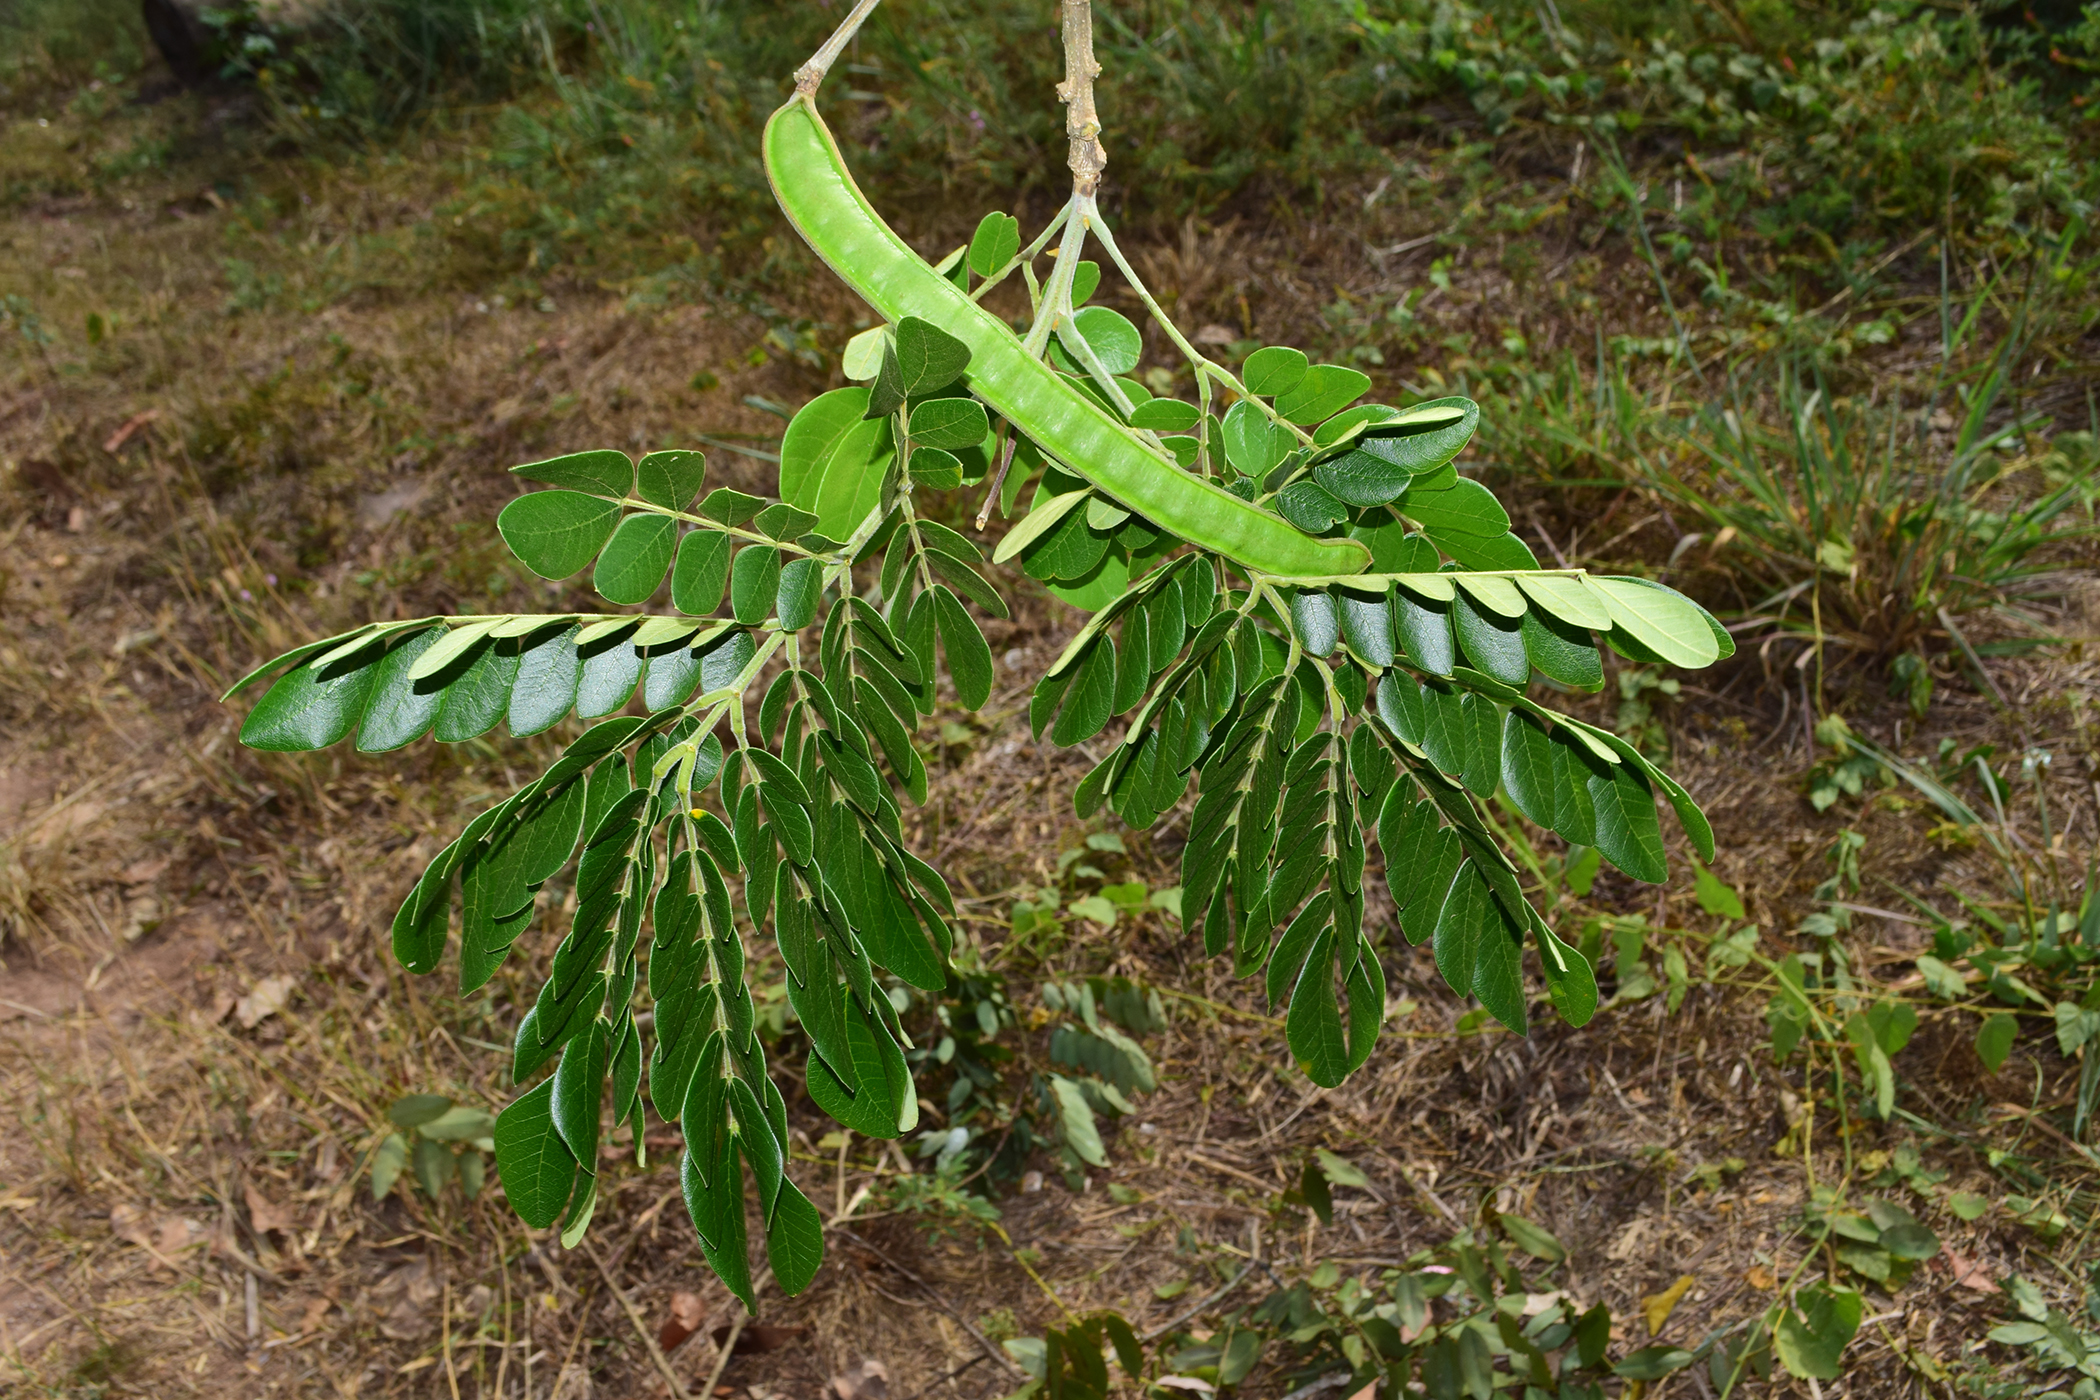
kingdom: Plantae
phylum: Tracheophyta
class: Magnoliopsida
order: Fabales
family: Fabaceae
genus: Samanea
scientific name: Samanea saman
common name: Raintree
